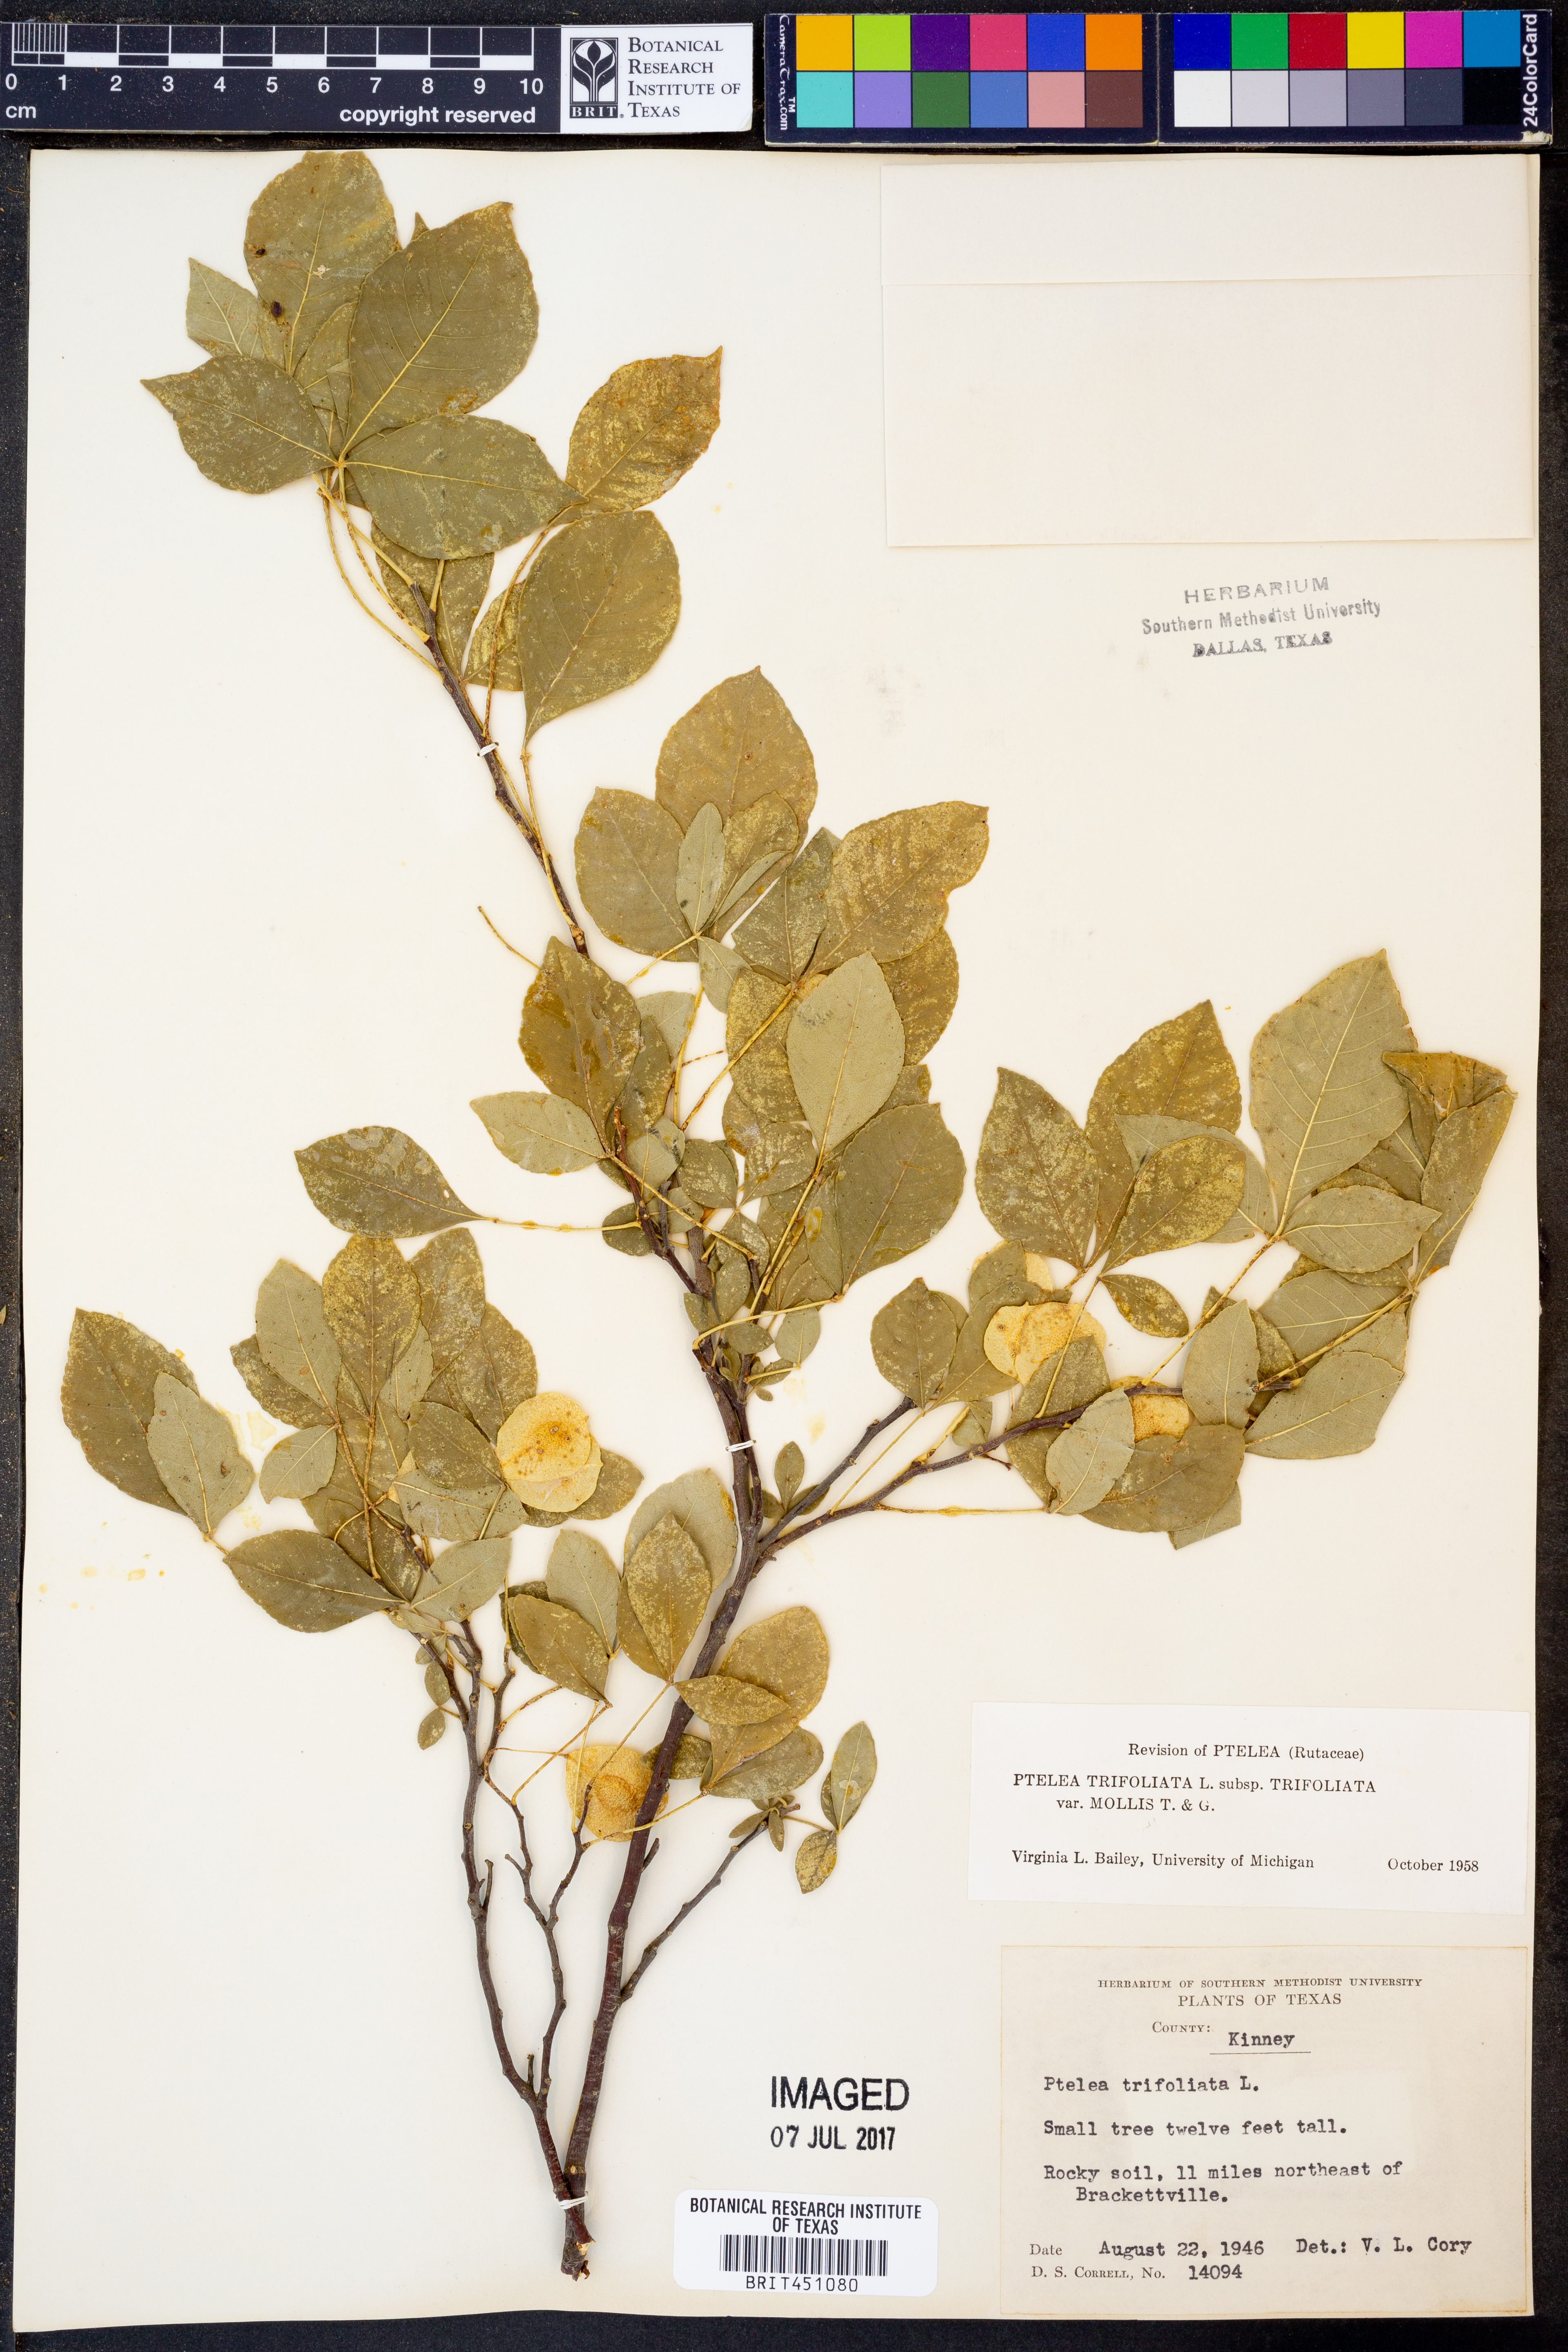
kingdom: Plantae
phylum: Tracheophyta
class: Magnoliopsida
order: Sapindales
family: Rutaceae
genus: Ptelea
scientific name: Ptelea trifoliata
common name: Common hop-tree
